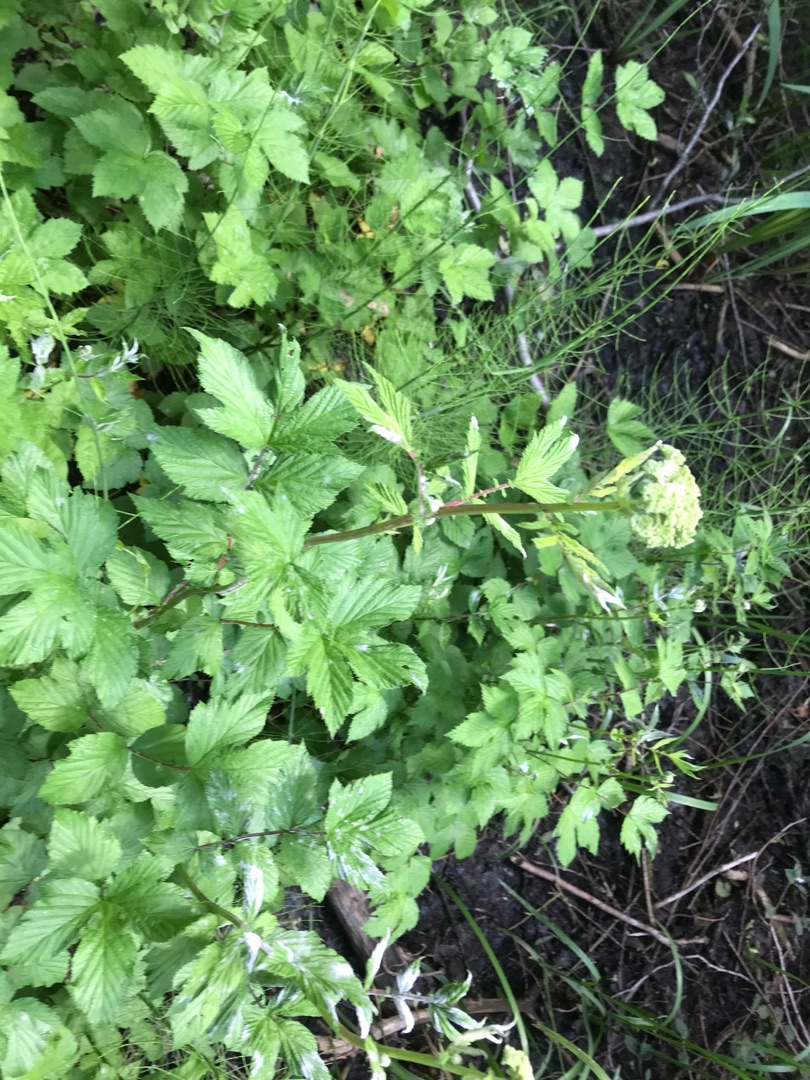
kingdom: Plantae
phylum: Tracheophyta
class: Magnoliopsida
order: Rosales
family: Rosaceae
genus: Filipendula
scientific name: Filipendula ulmaria
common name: Almindelig mjødurt
